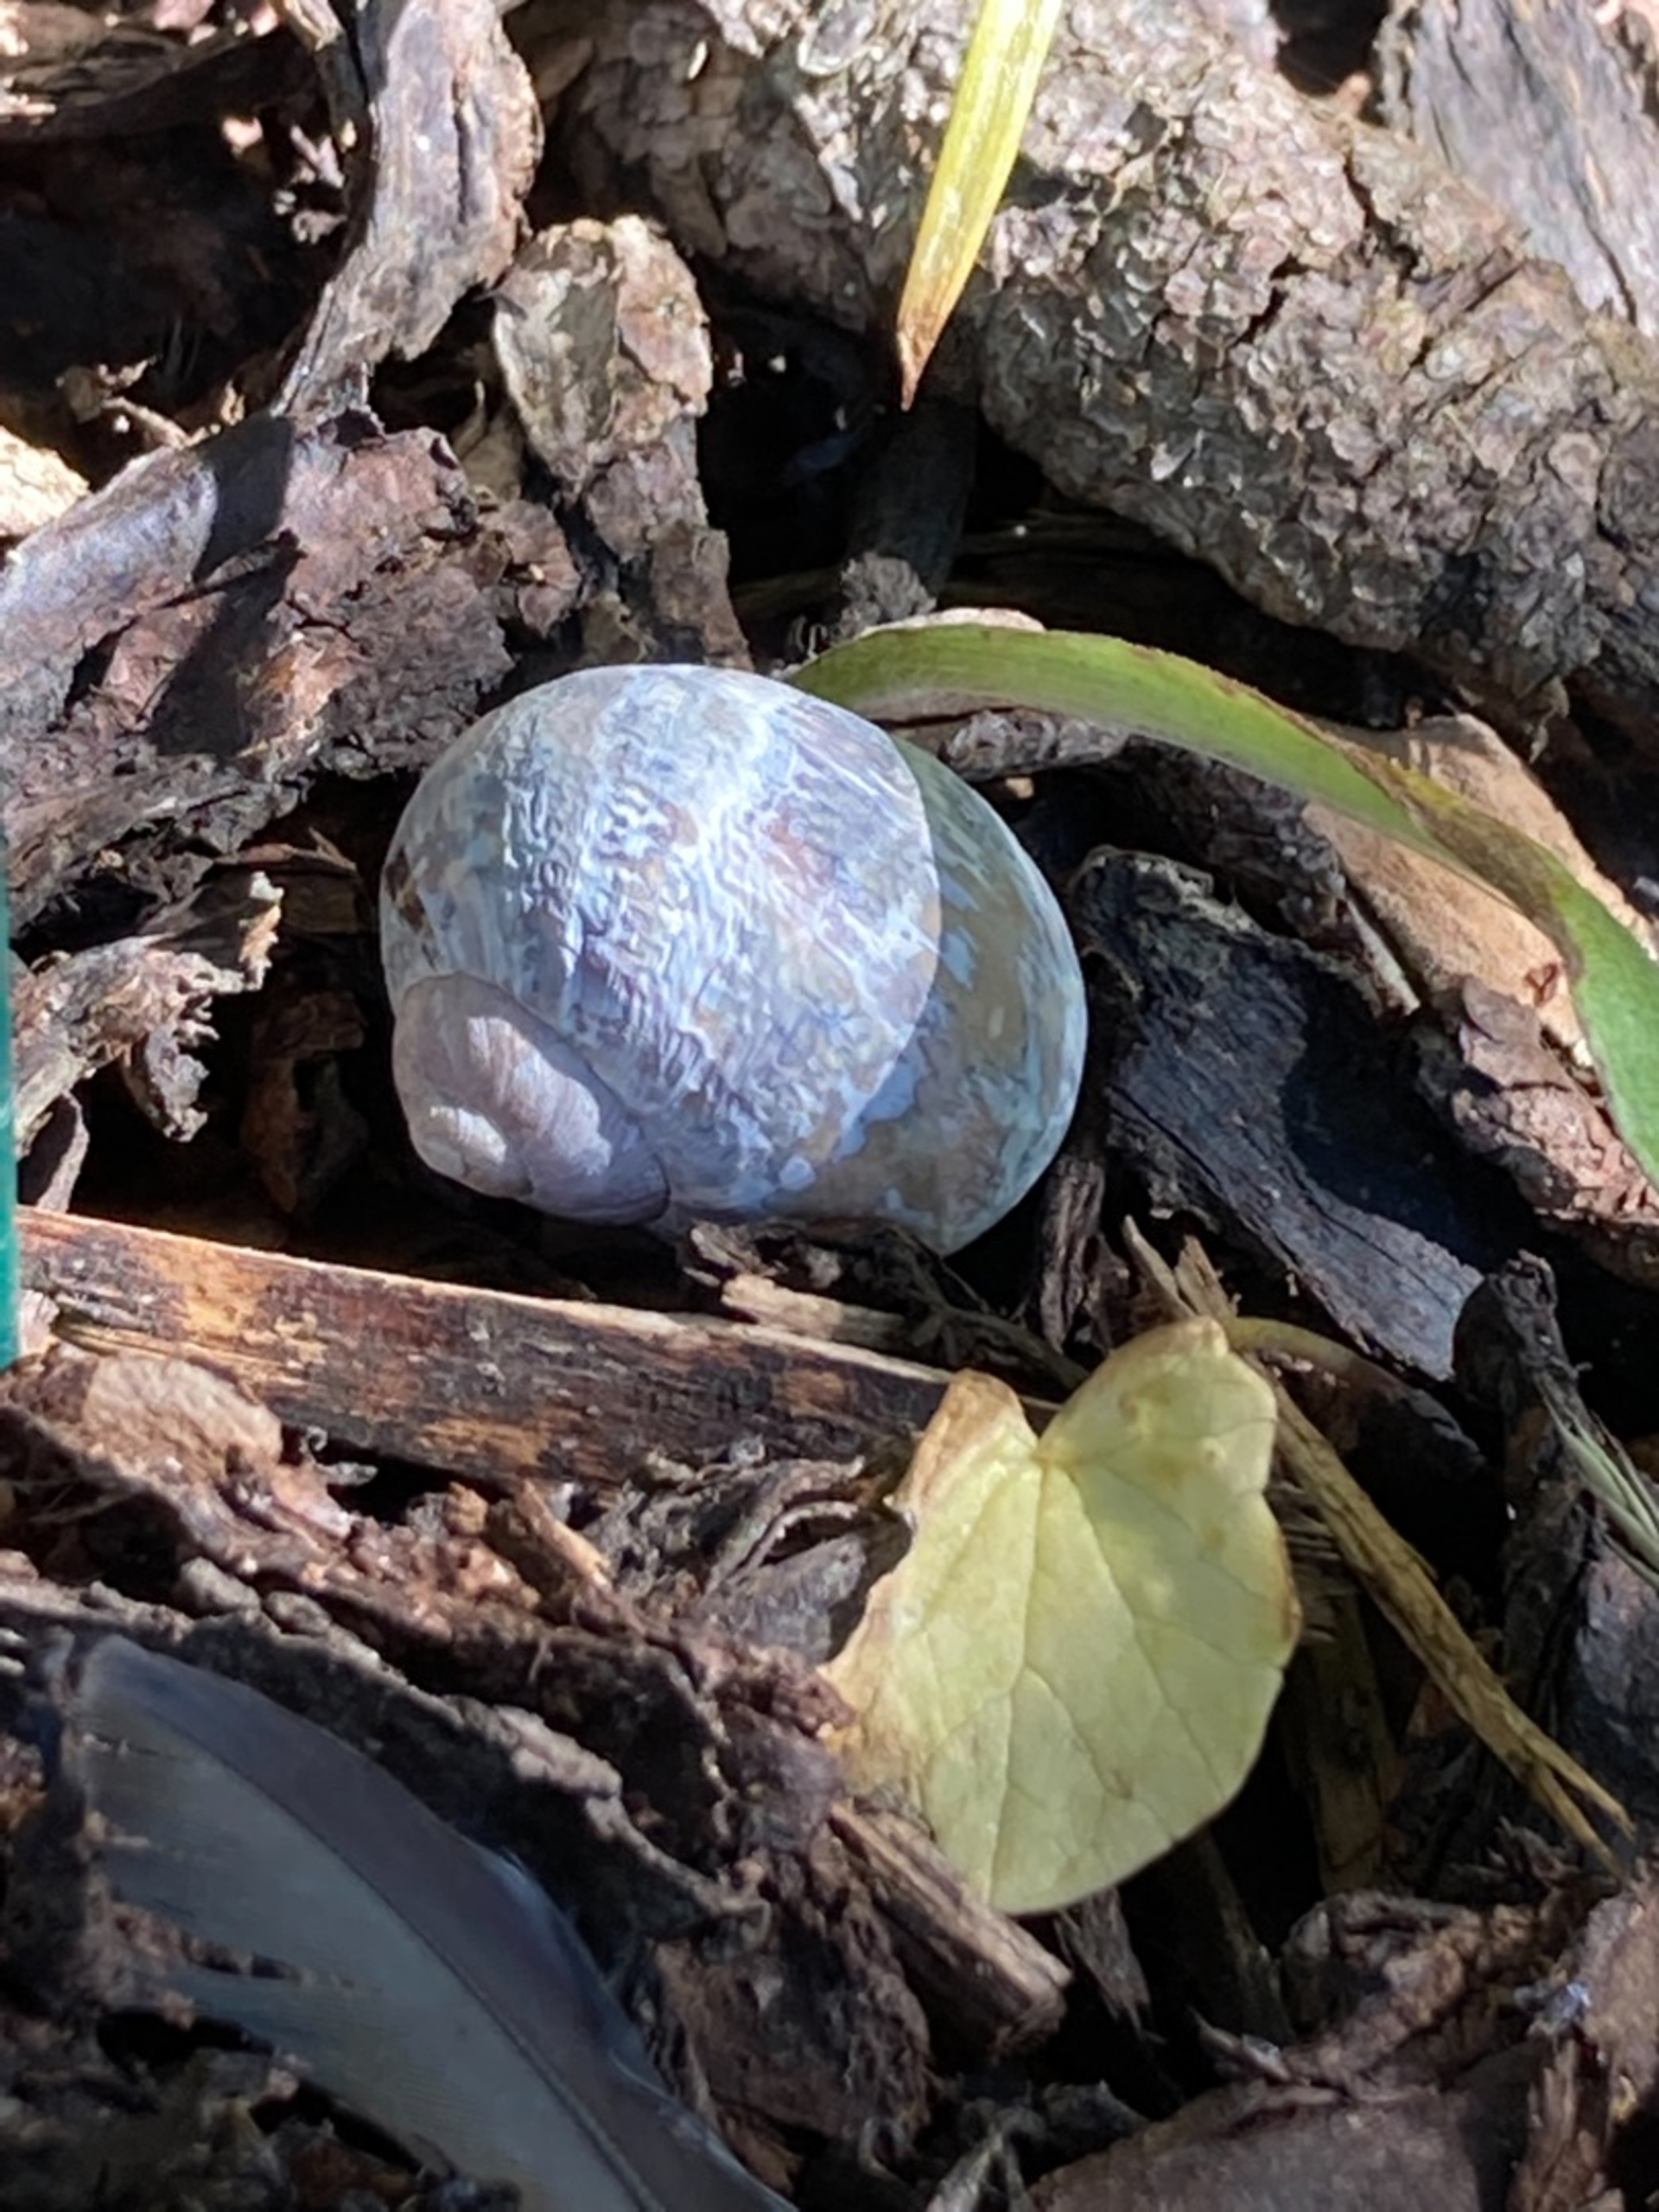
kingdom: Animalia
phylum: Mollusca
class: Gastropoda
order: Stylommatophora
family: Helicidae
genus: Helix
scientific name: Helix pomatia
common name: Vinbjergsnegl
